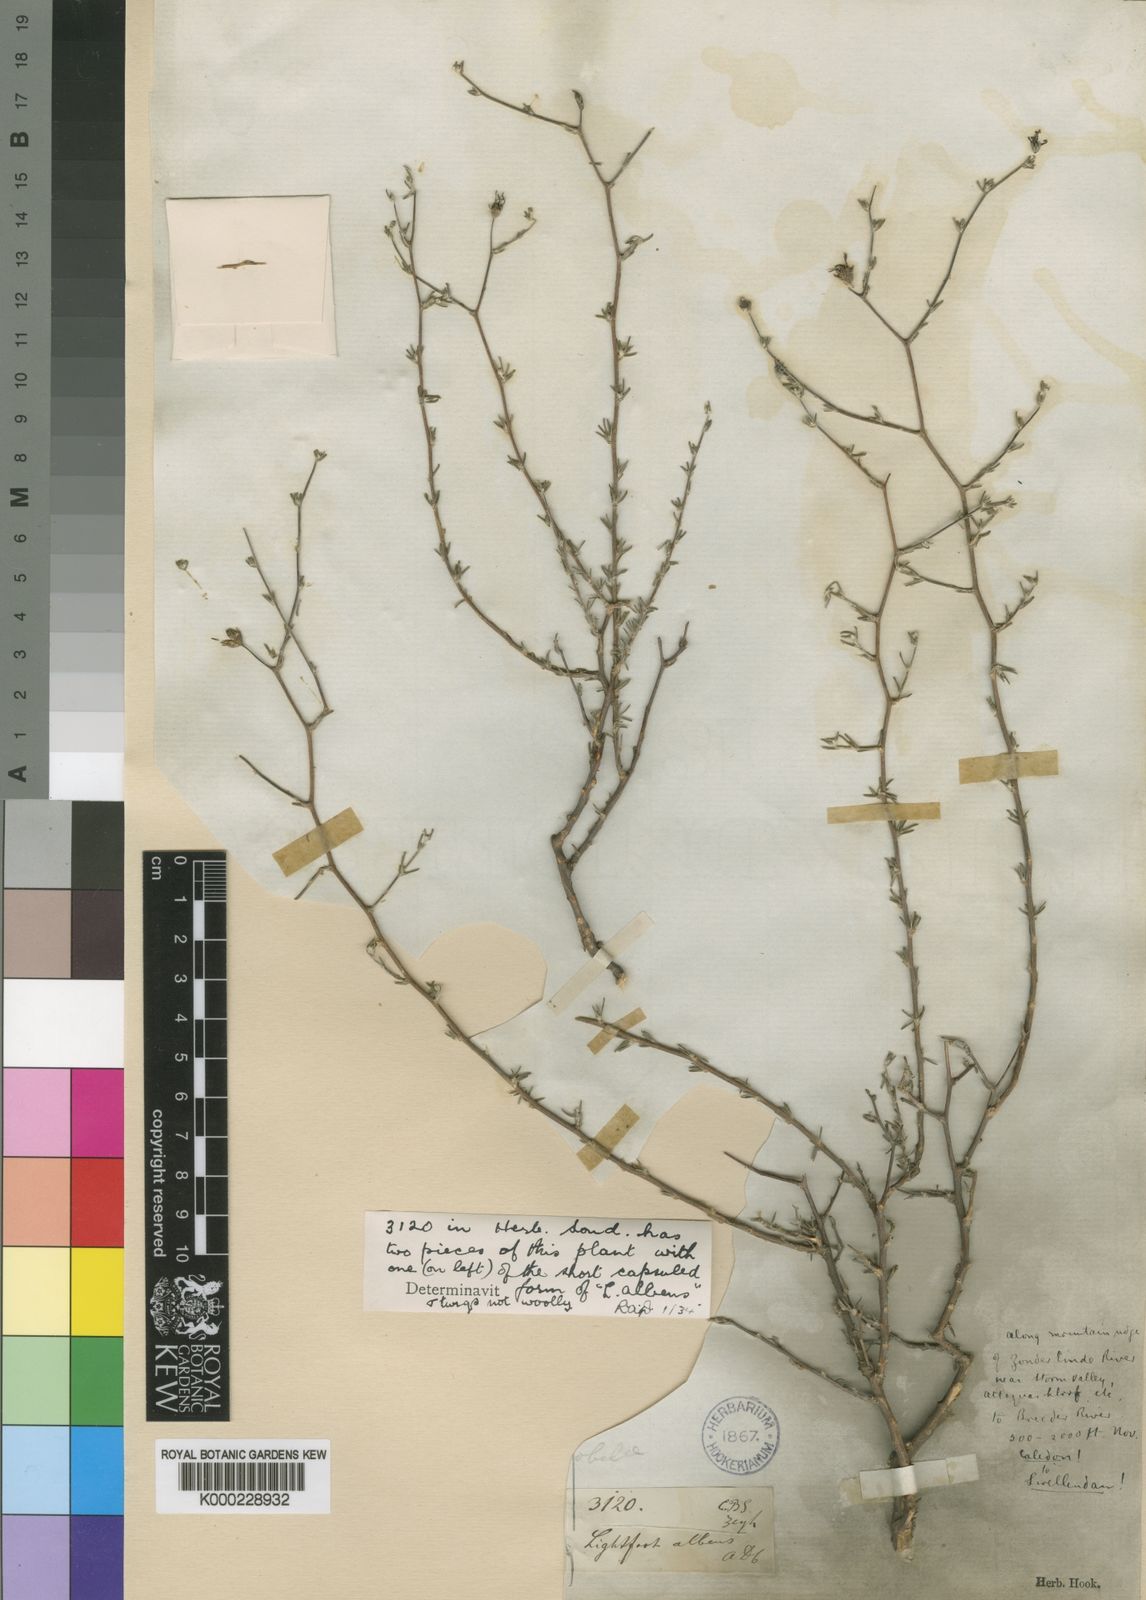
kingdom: Plantae
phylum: Tracheophyta
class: Magnoliopsida
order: Asterales
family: Campanulaceae
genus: Wahlenbergia
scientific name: Wahlenbergia albens
